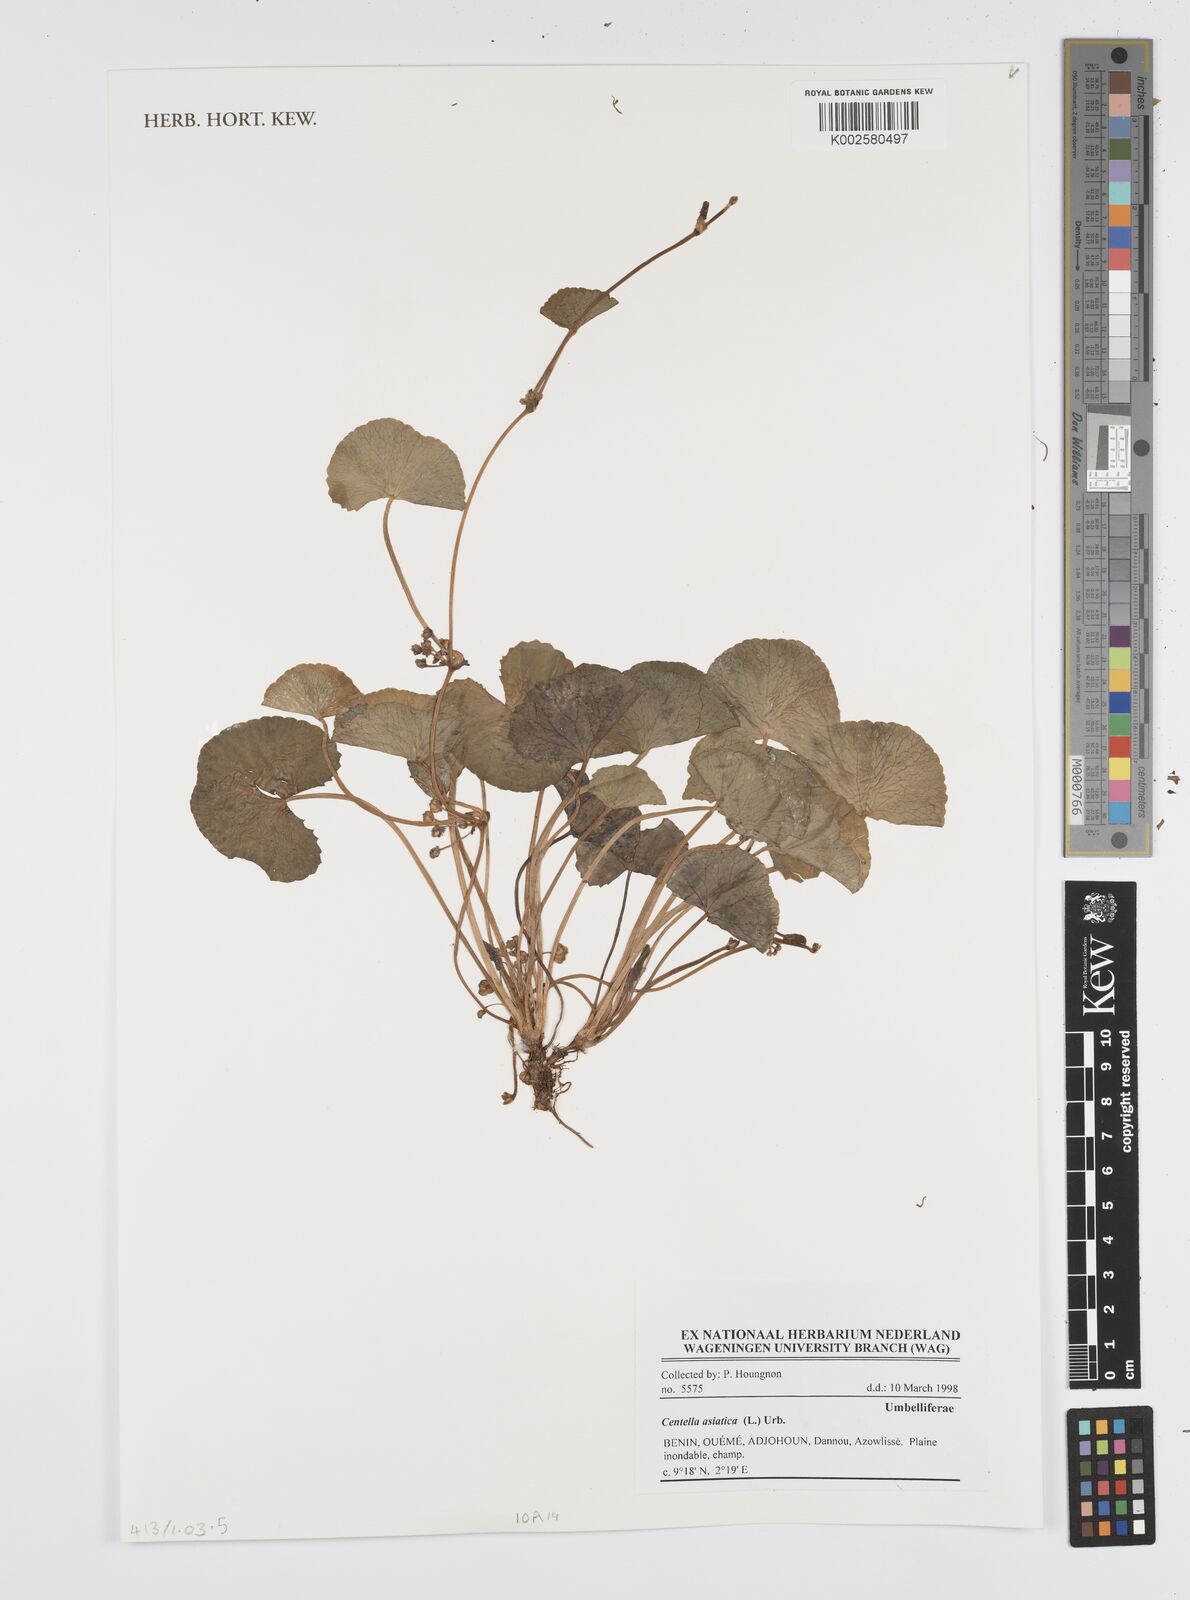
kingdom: Plantae
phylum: Tracheophyta
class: Magnoliopsida
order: Apiales
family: Apiaceae
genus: Centella
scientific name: Centella asiatica
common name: Spadeleaf
